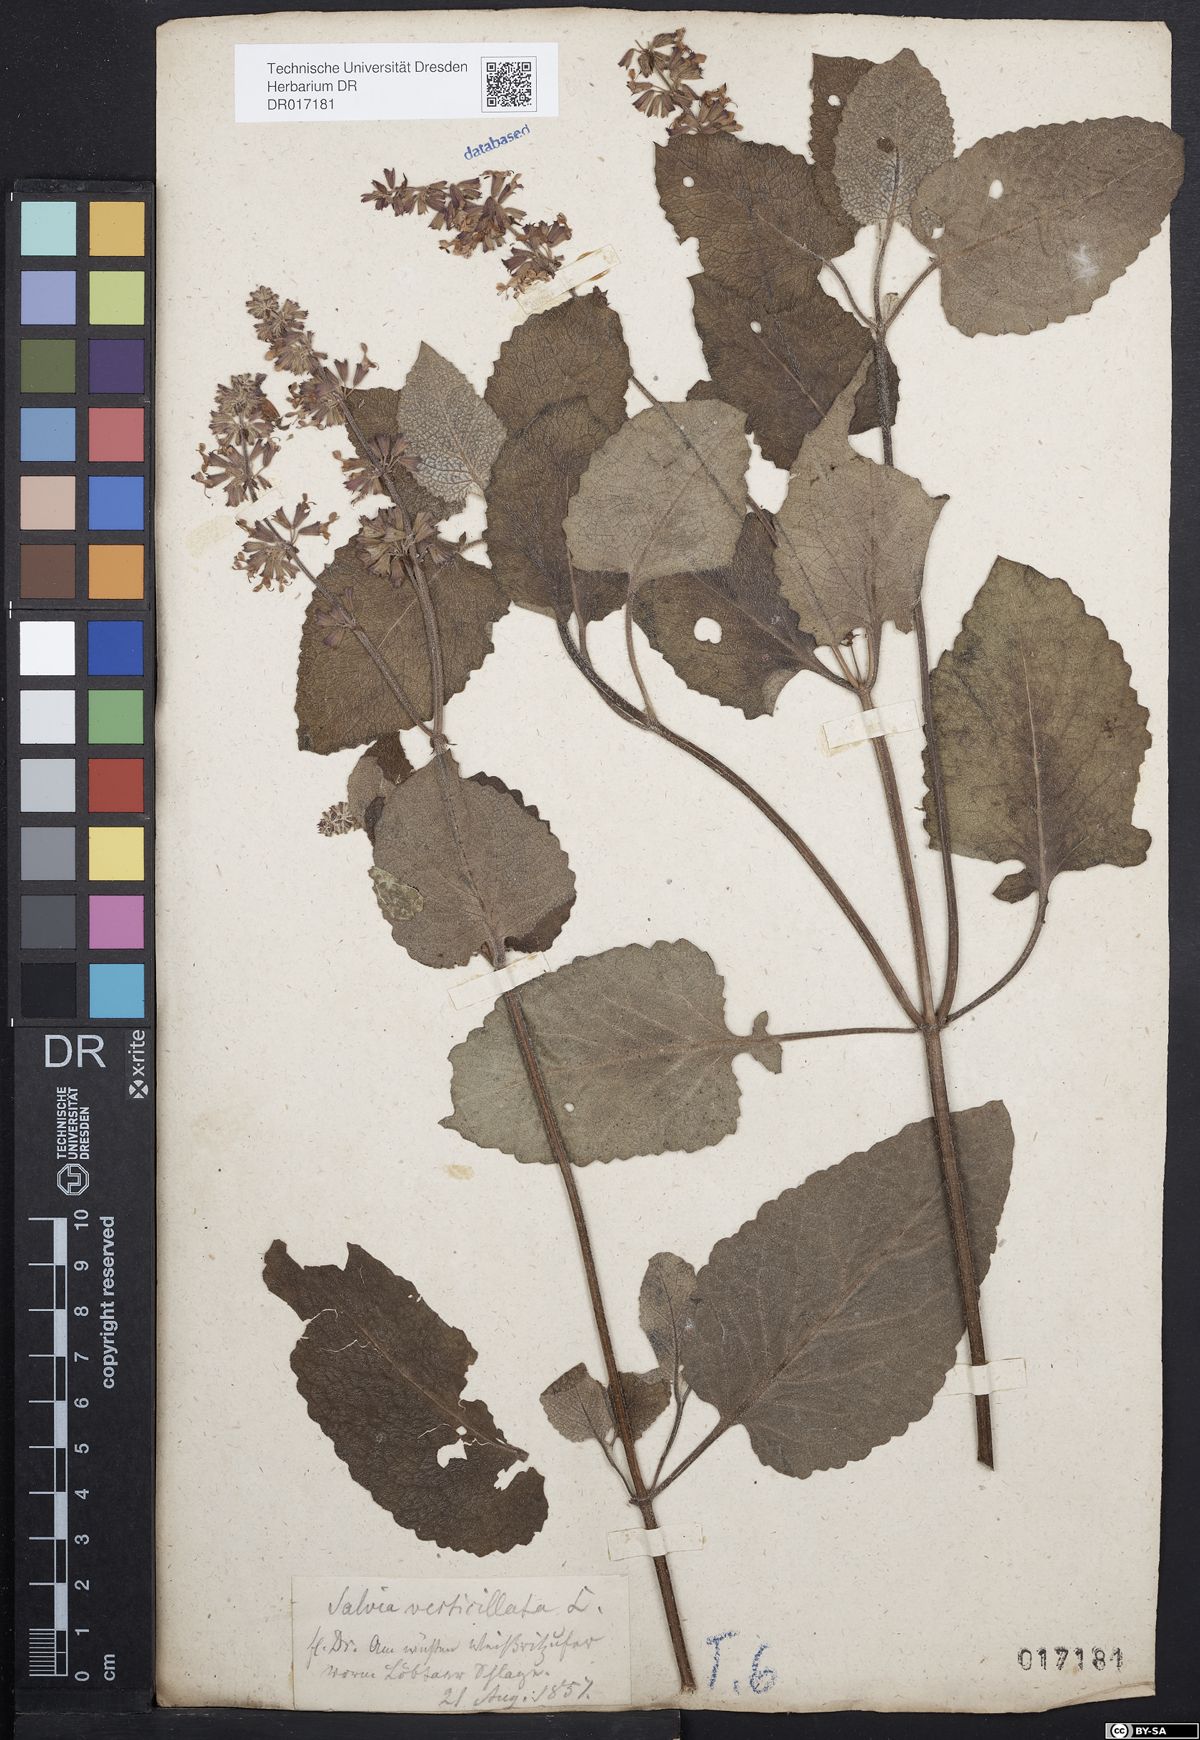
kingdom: Plantae
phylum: Tracheophyta
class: Magnoliopsida
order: Lamiales
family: Lamiaceae
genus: Salvia
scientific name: Salvia verticillata
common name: Whorled clary
